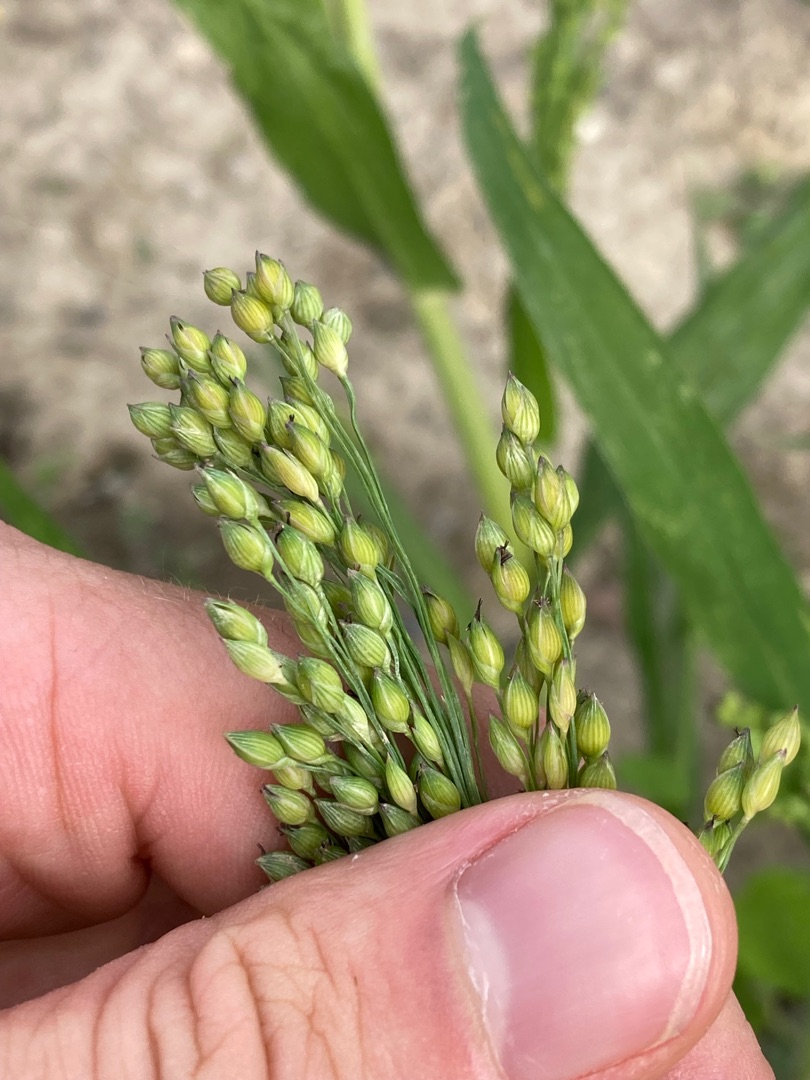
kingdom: Plantae
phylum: Tracheophyta
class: Liliopsida
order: Poales
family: Poaceae
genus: Panicum
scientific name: Panicum miliaceum
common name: Almindelig hirse
